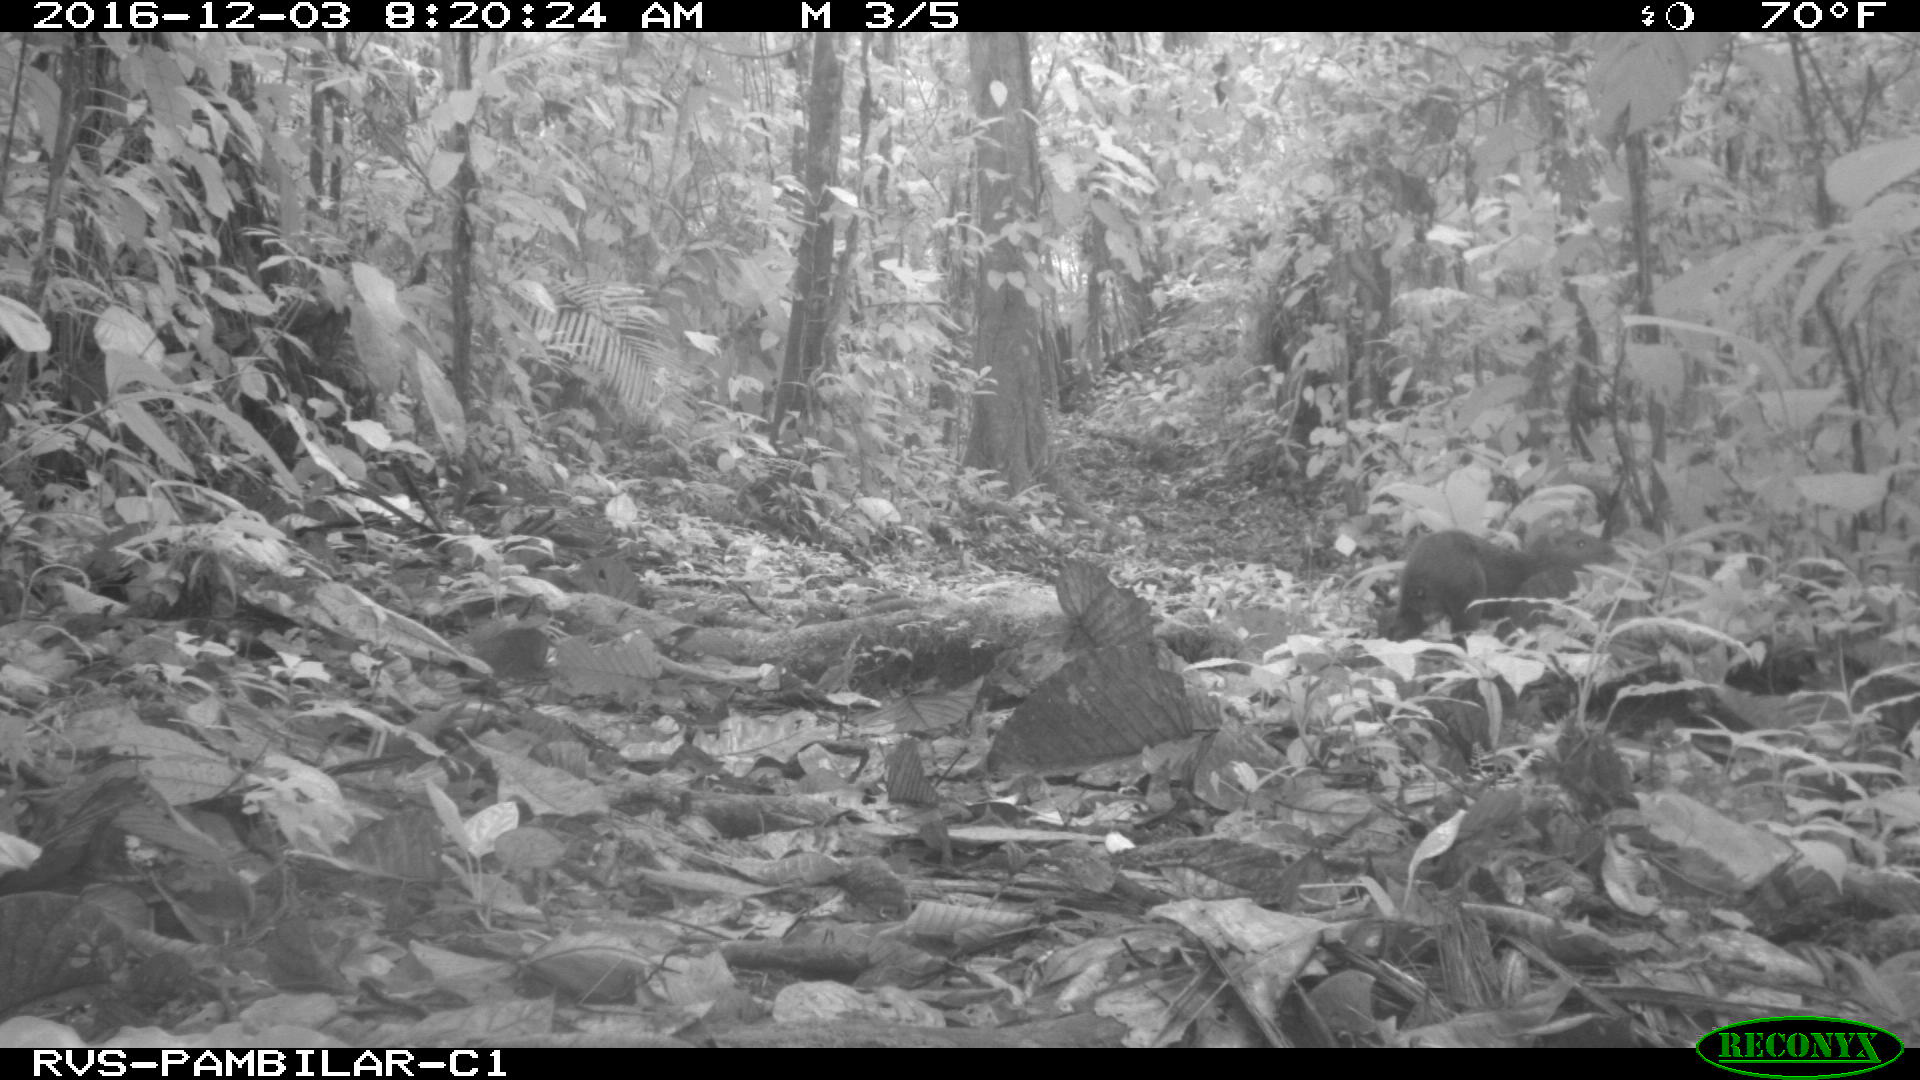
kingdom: Animalia
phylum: Chordata
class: Mammalia
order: Rodentia
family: Dasyproctidae
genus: Dasyprocta
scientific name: Dasyprocta punctata
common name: Central american agouti
